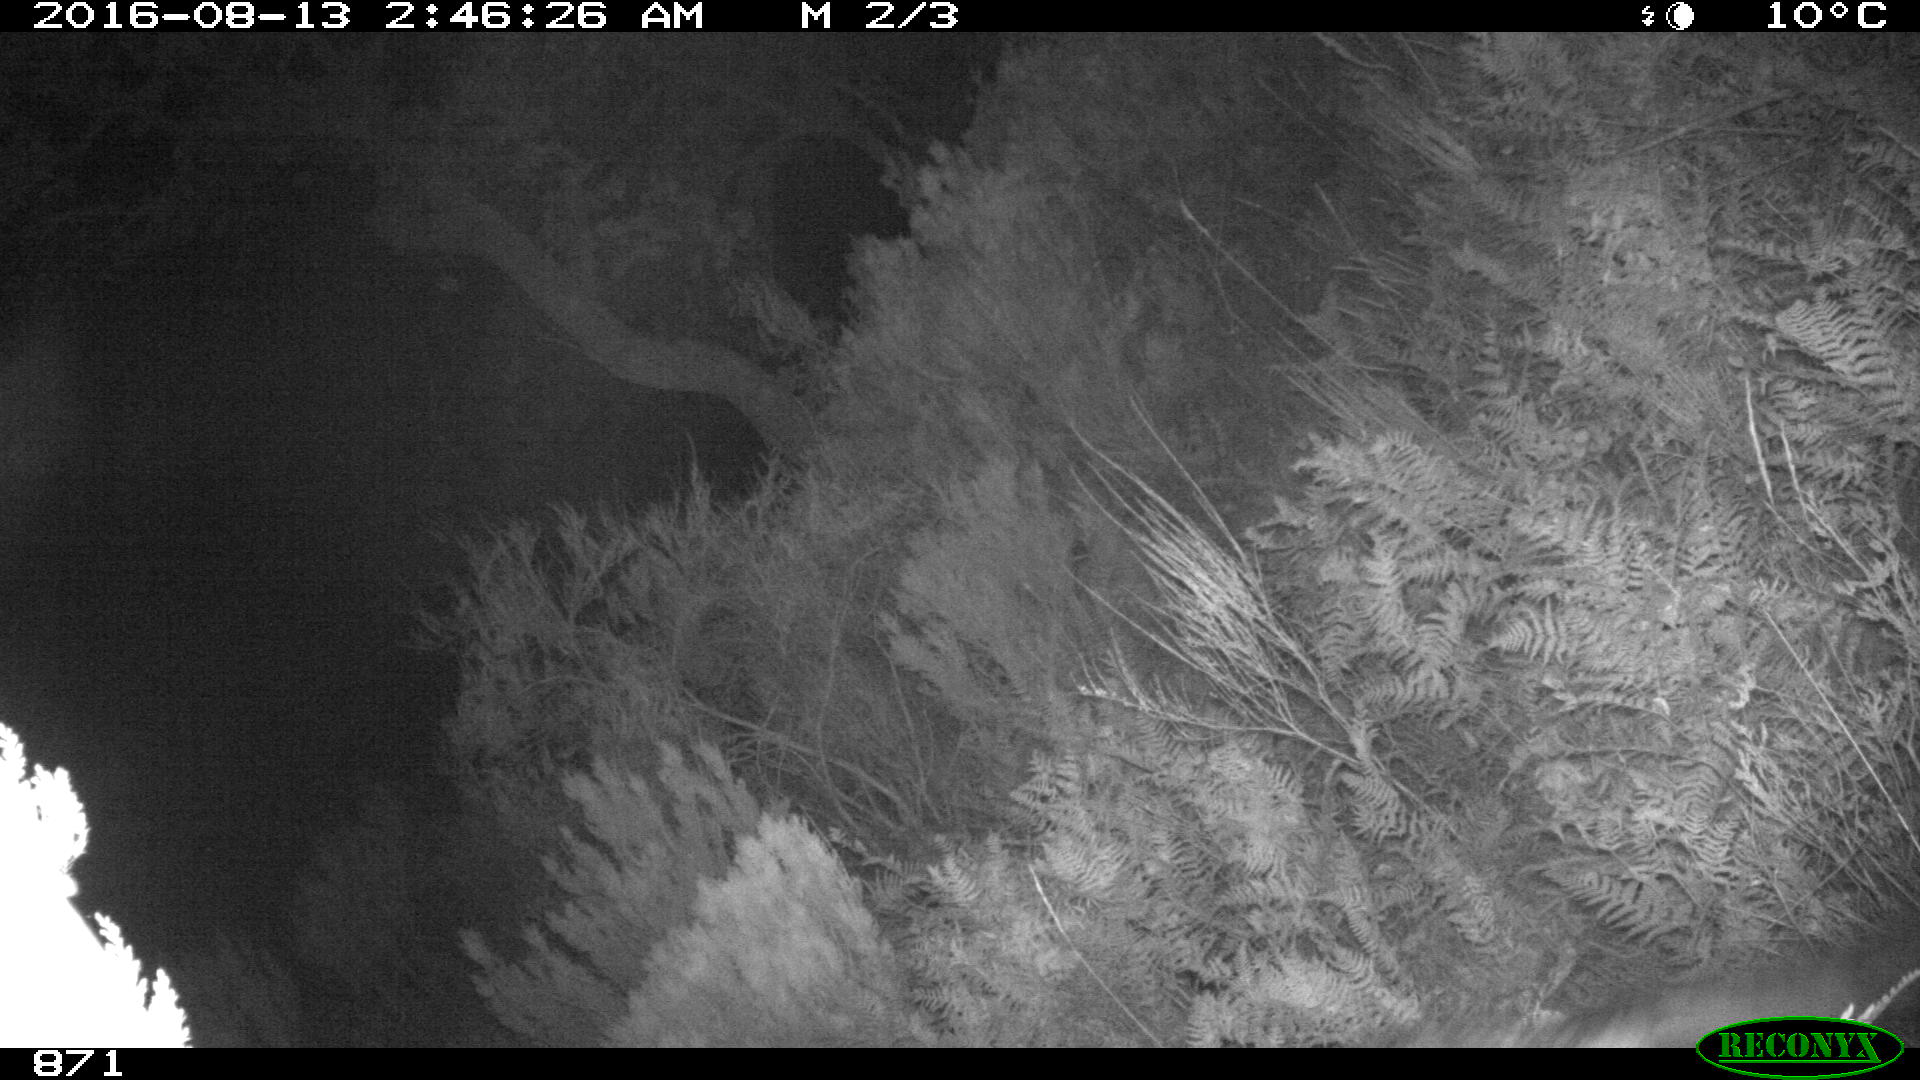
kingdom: Animalia
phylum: Chordata
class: Mammalia
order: Carnivora
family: Canidae
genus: Canis
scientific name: Canis lupus
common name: Gray wolf
